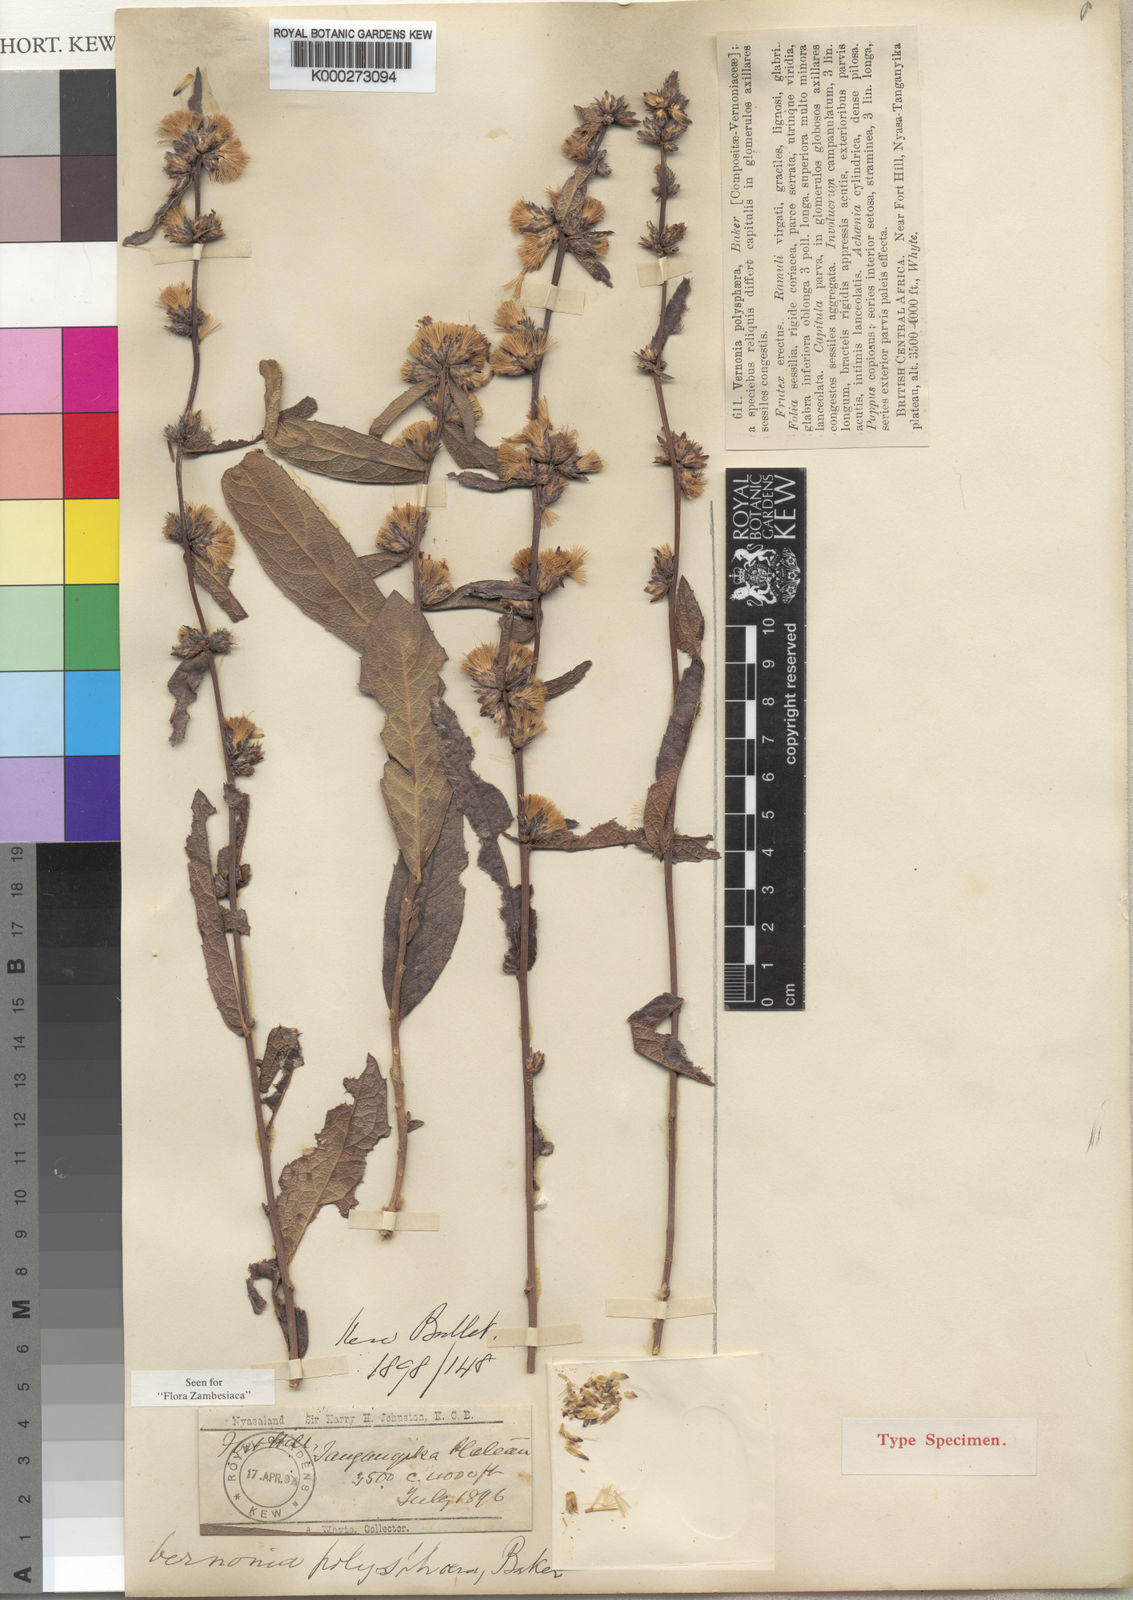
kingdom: Plantae
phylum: Tracheophyta
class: Magnoliopsida
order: Asterales
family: Asteraceae
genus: Cabobanthus
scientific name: Cabobanthus polysphaerus
